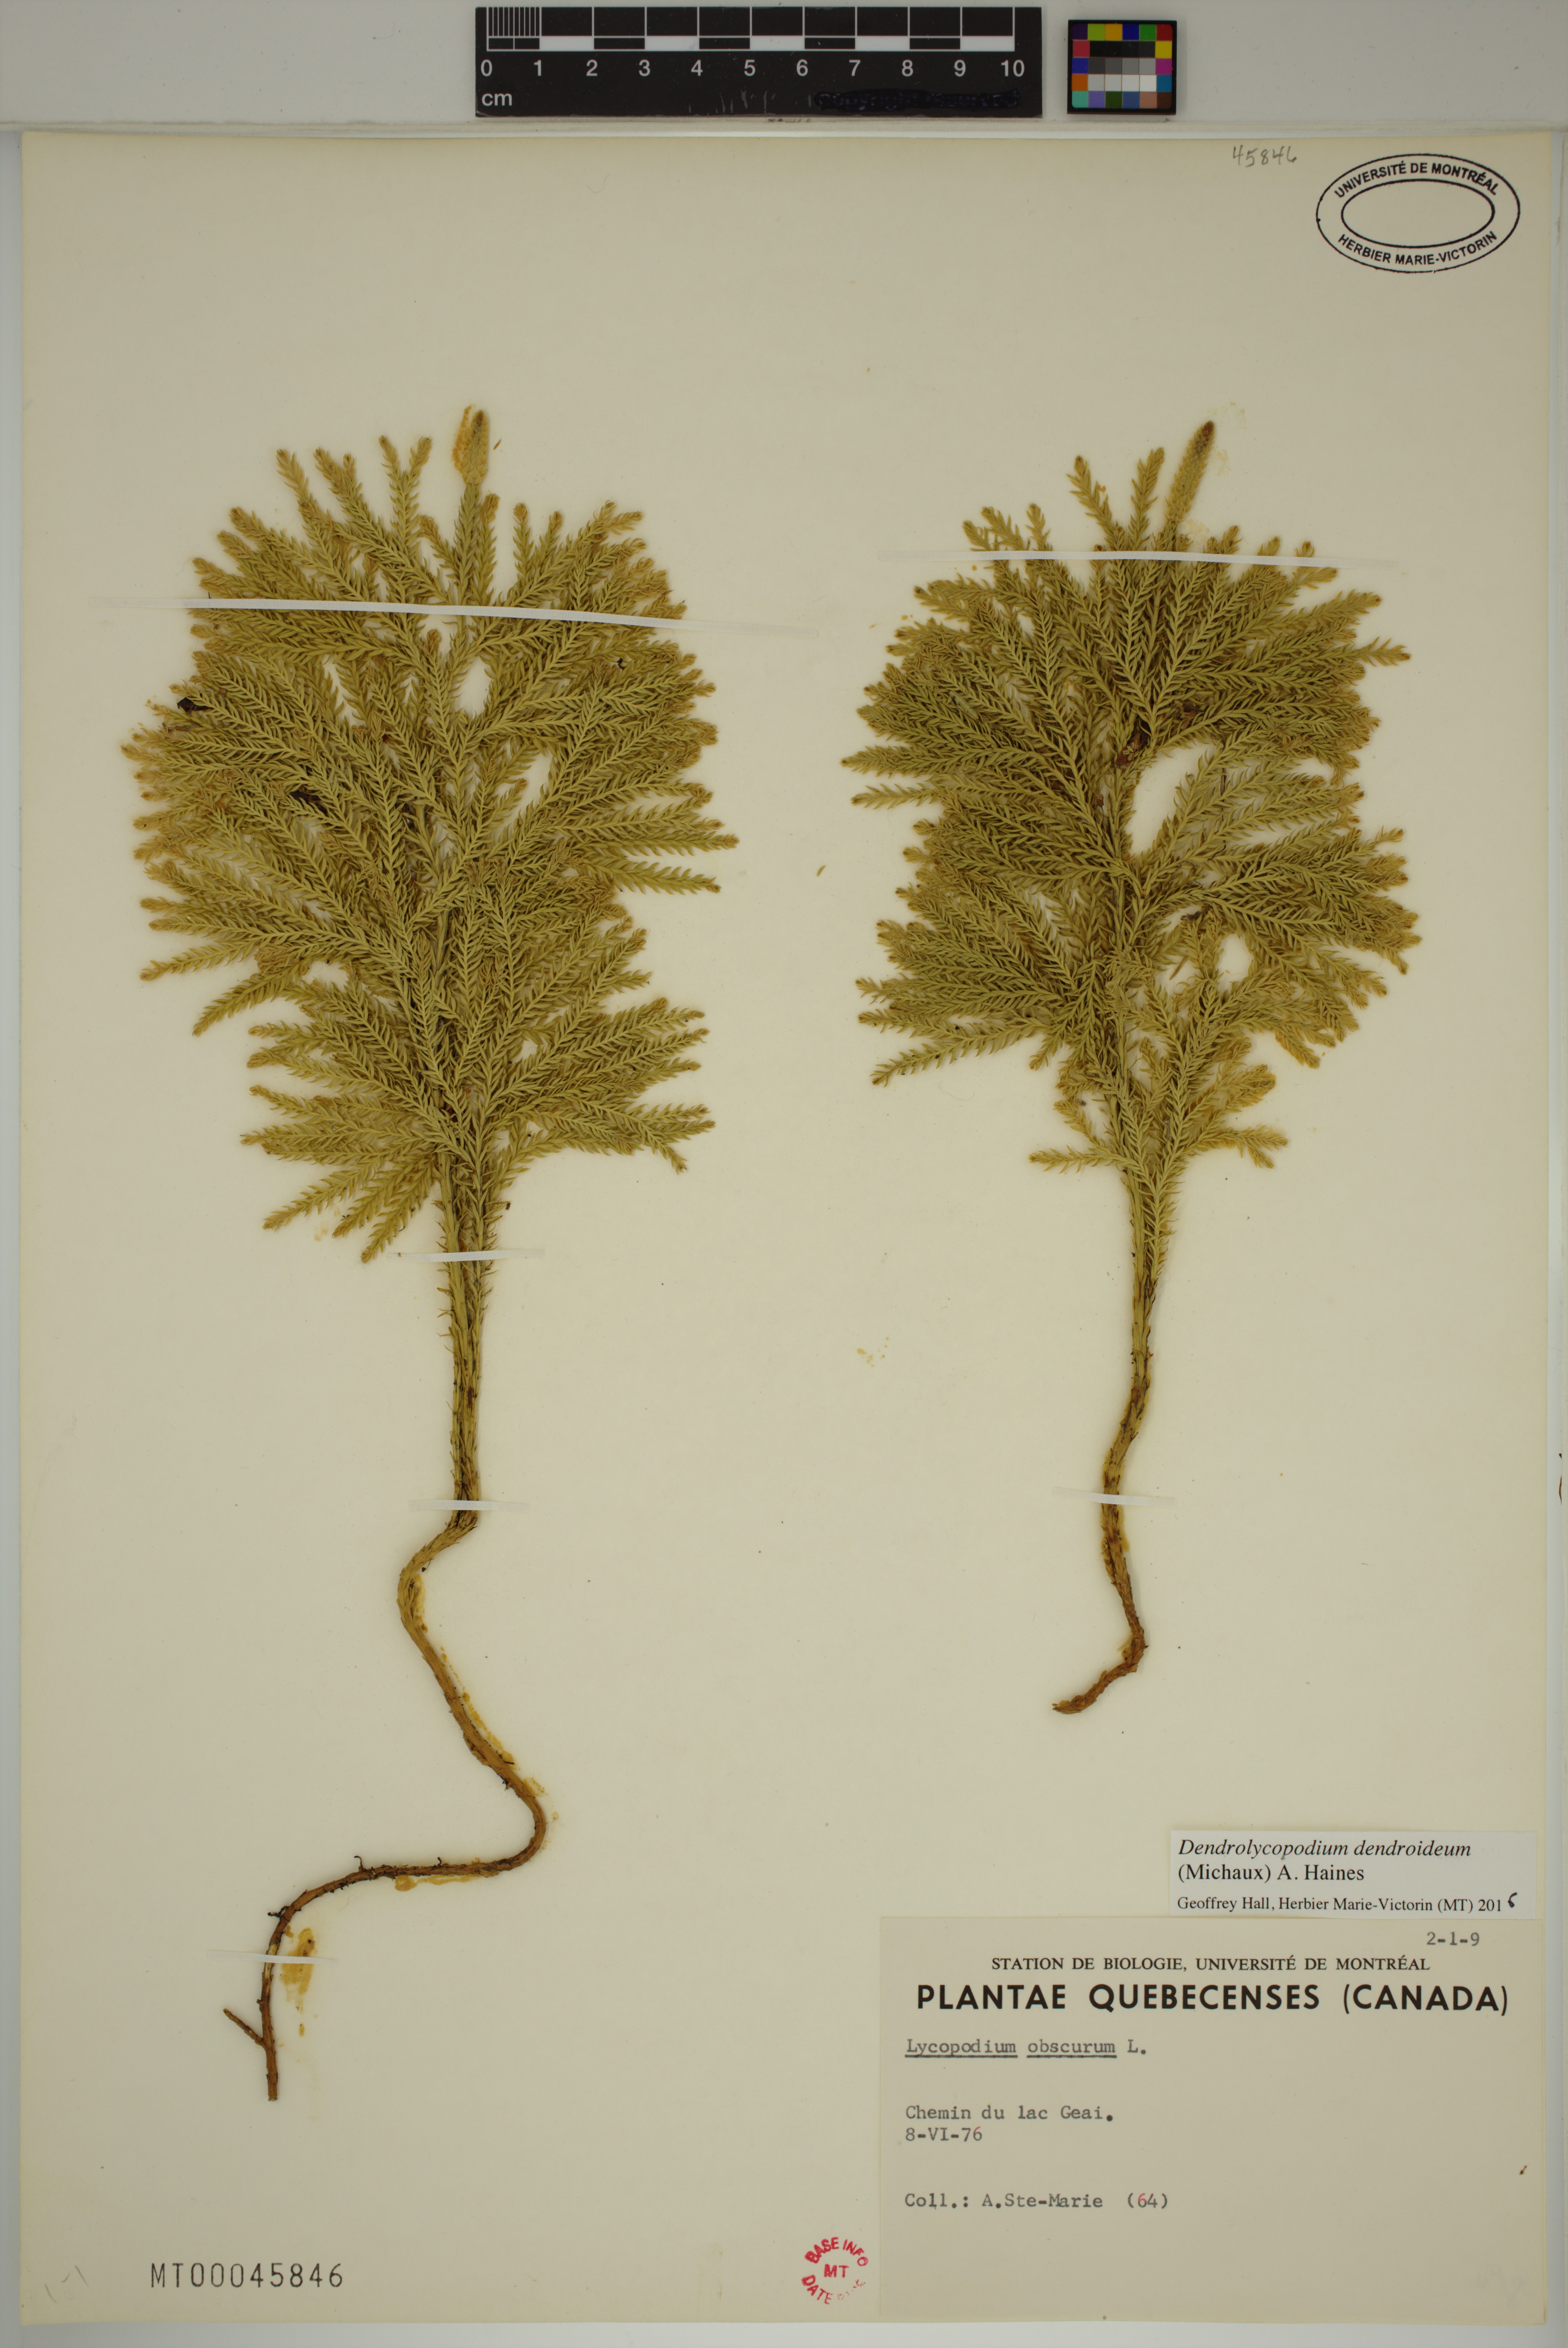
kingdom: Plantae
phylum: Tracheophyta
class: Lycopodiopsida
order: Lycopodiales
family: Lycopodiaceae
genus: Dendrolycopodium
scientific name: Dendrolycopodium dendroideum
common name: Northern tree-clubmoss
